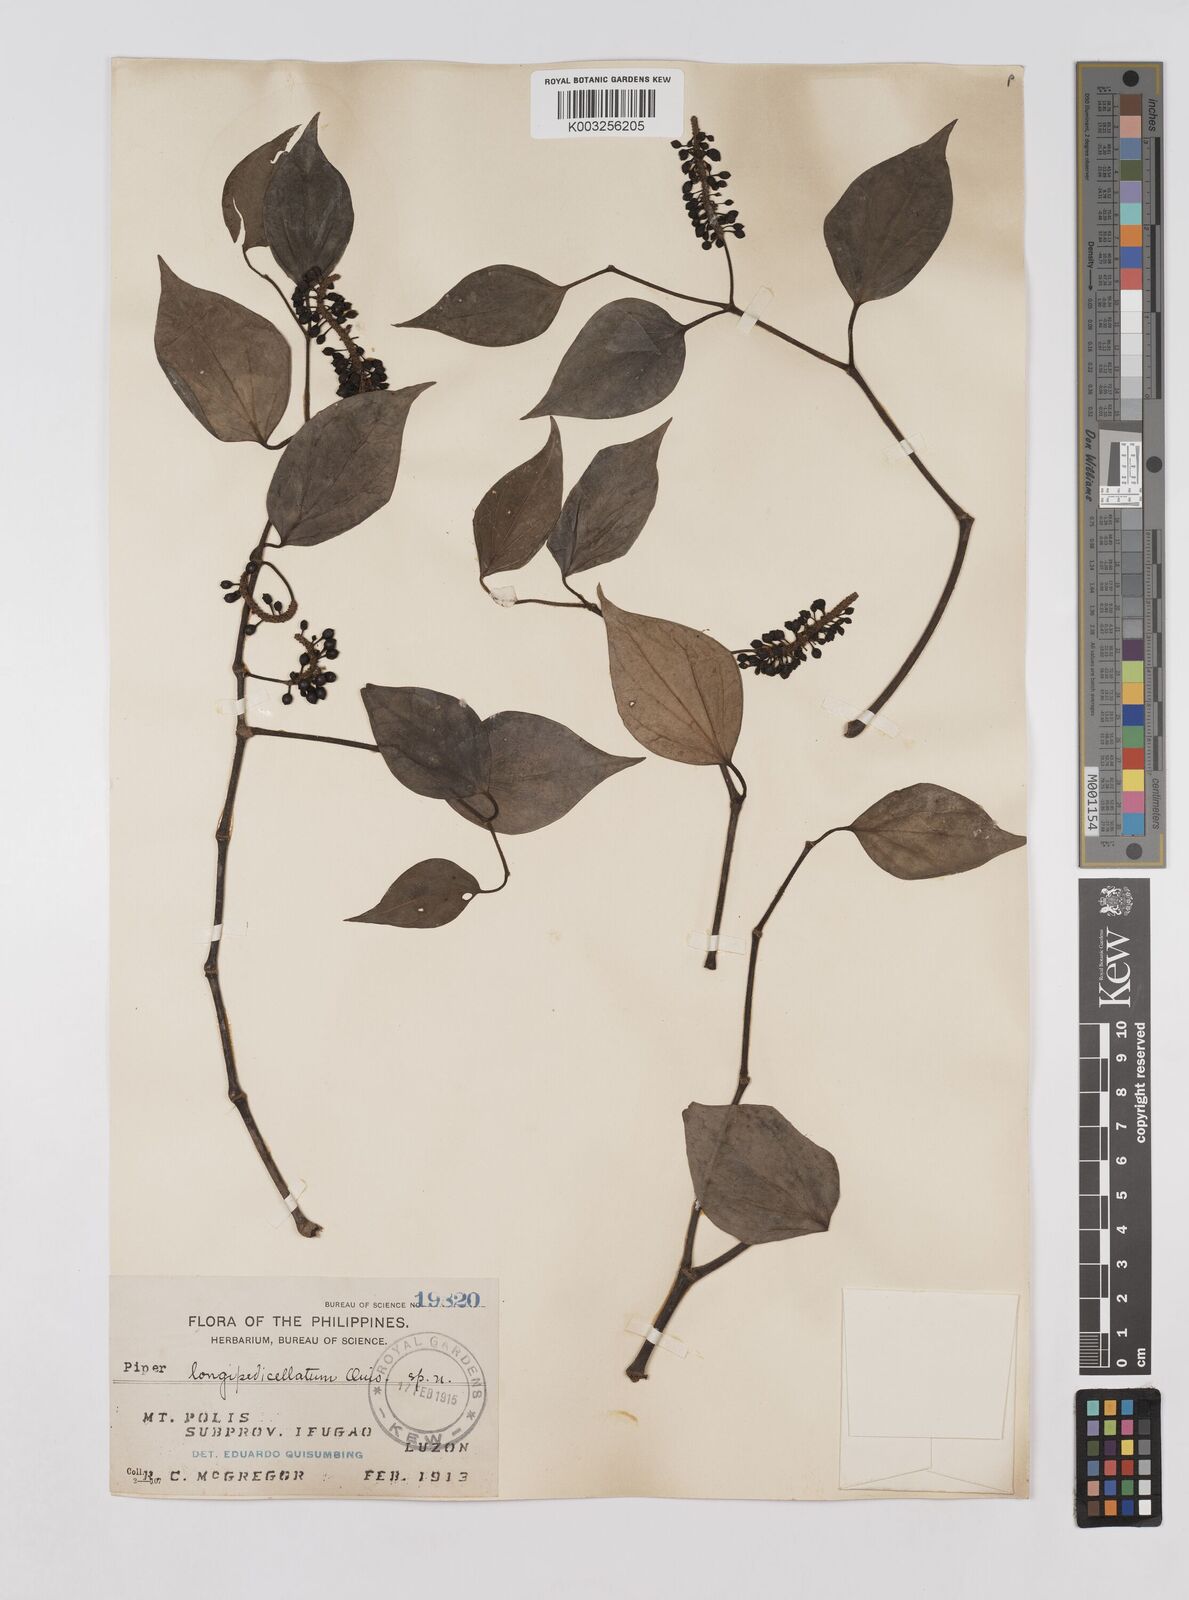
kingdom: Plantae
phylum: Tracheophyta
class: Magnoliopsida
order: Piperales
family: Piperaceae
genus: Piper
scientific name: Piper longipedicellatum
